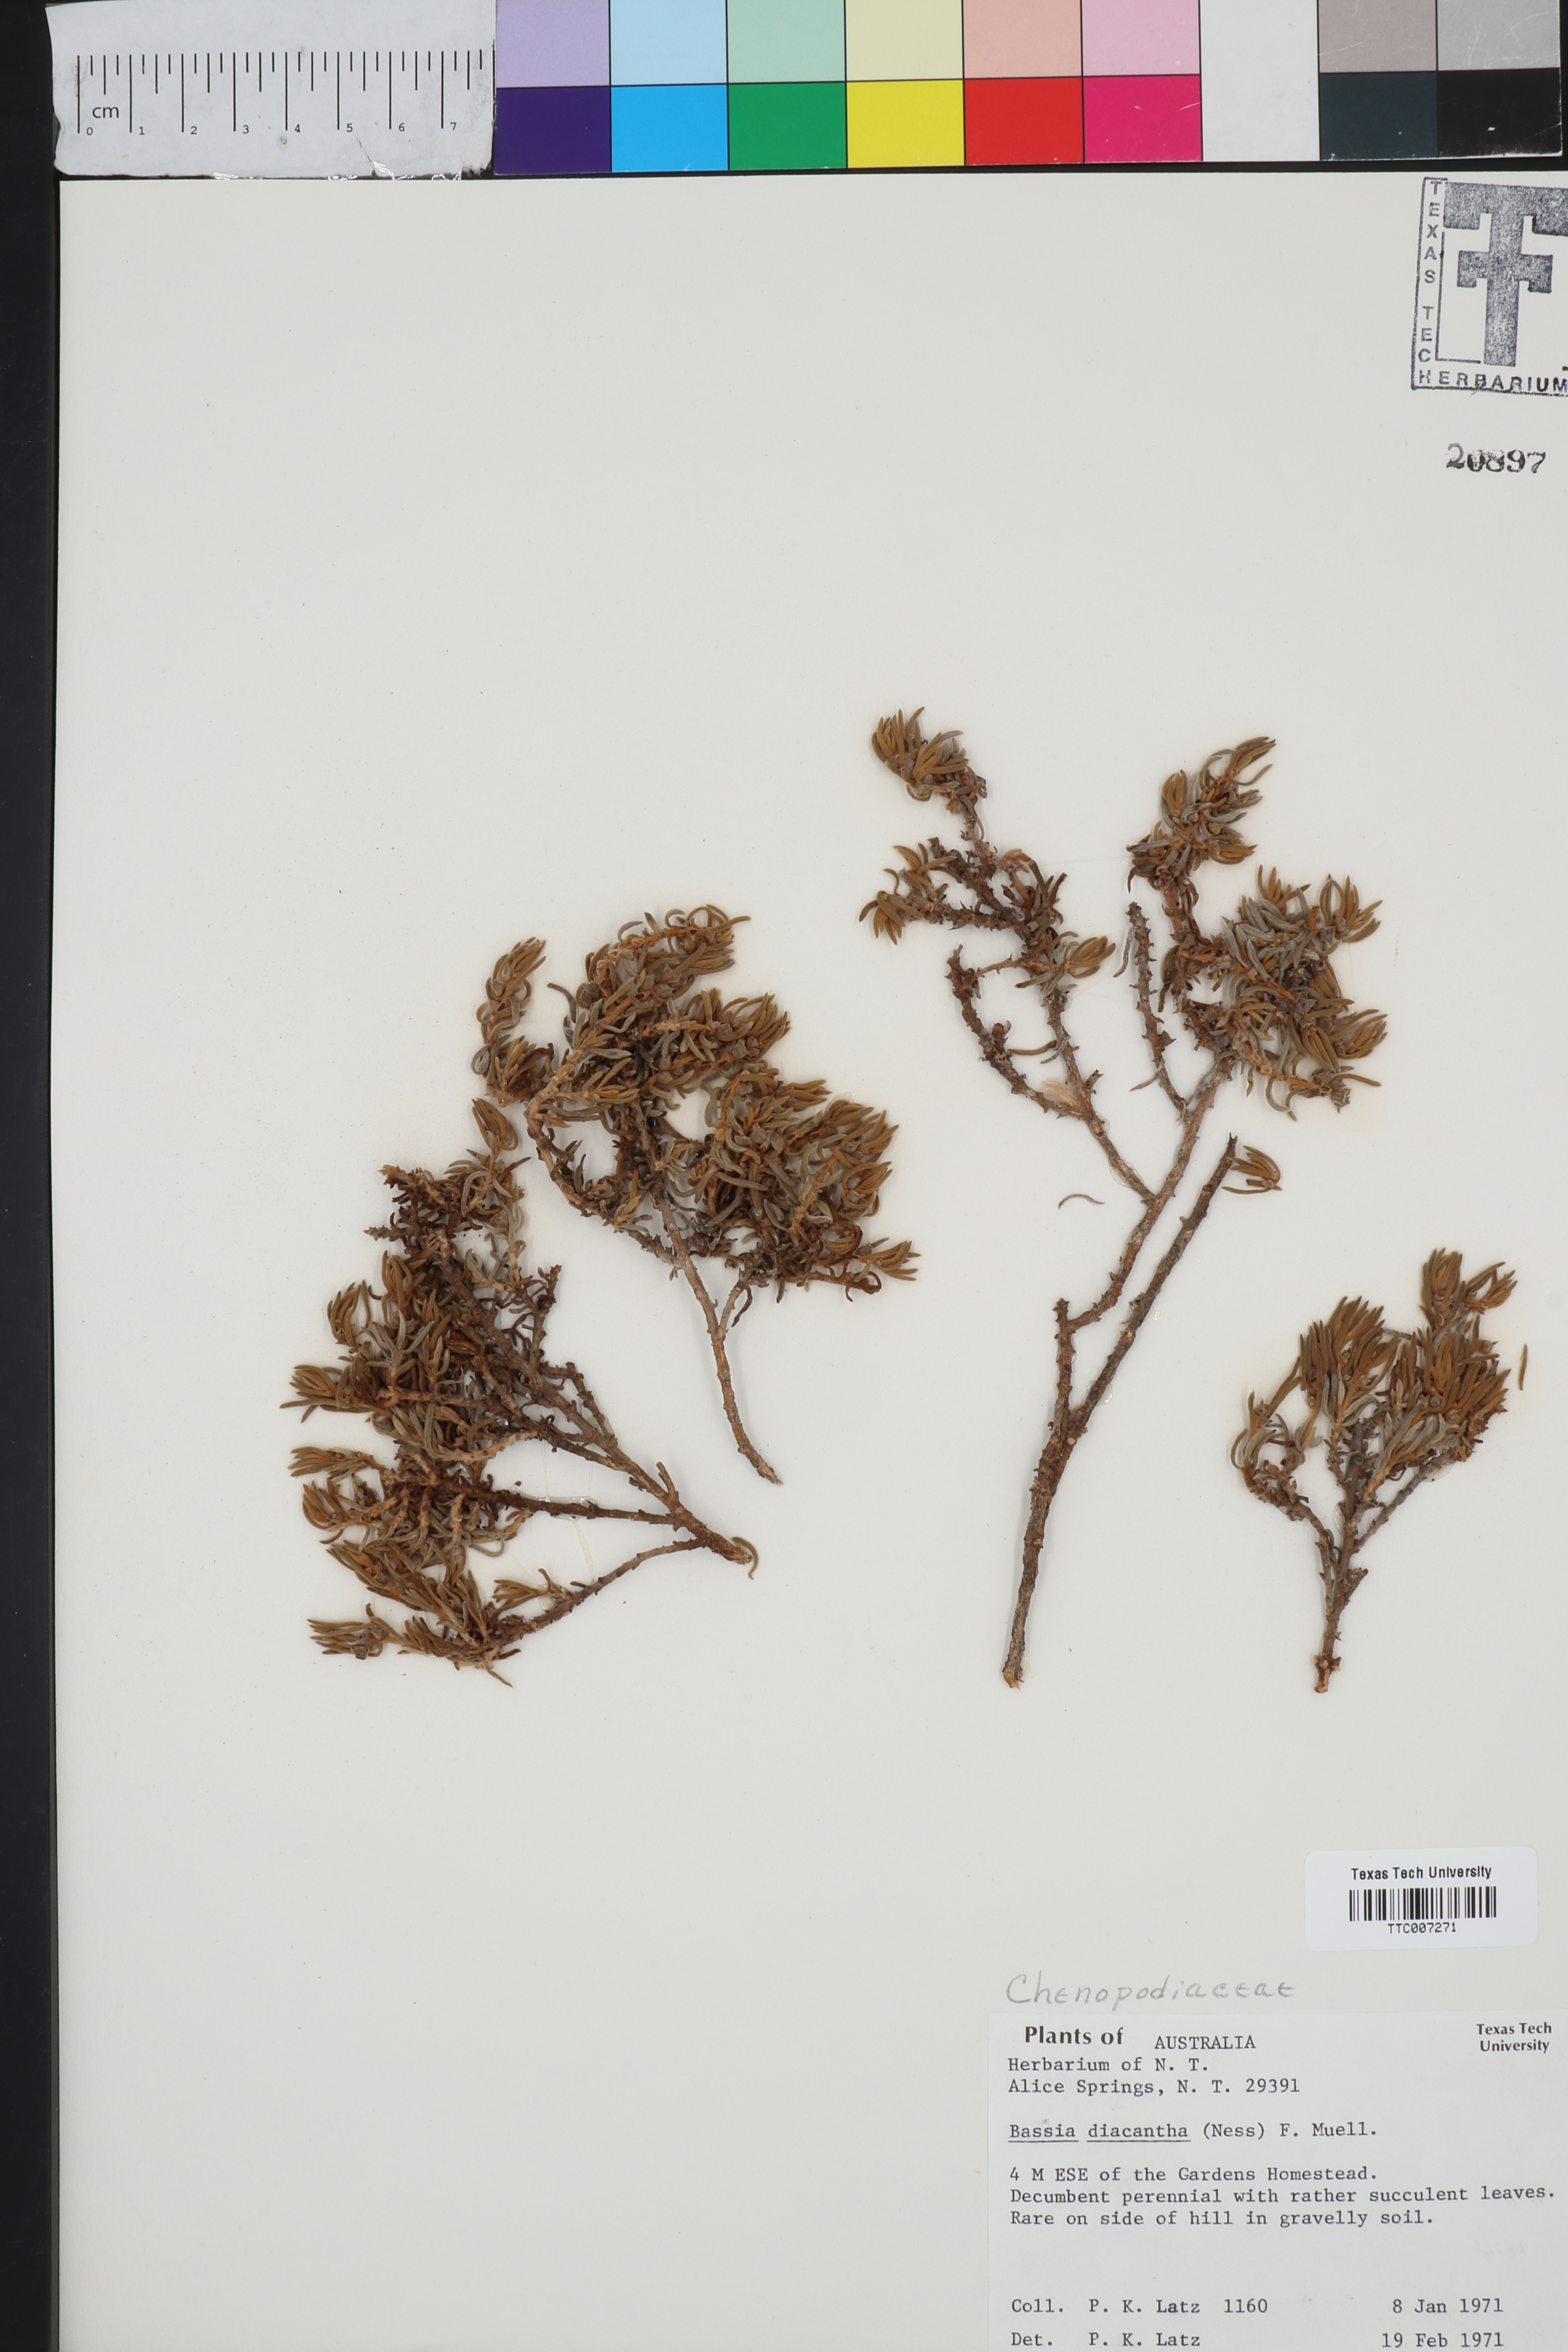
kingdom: Plantae
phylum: Tracheophyta
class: Magnoliopsida
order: Caryophyllales
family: Amaranthaceae
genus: Sclerolaena
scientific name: Sclerolaena diacantha
